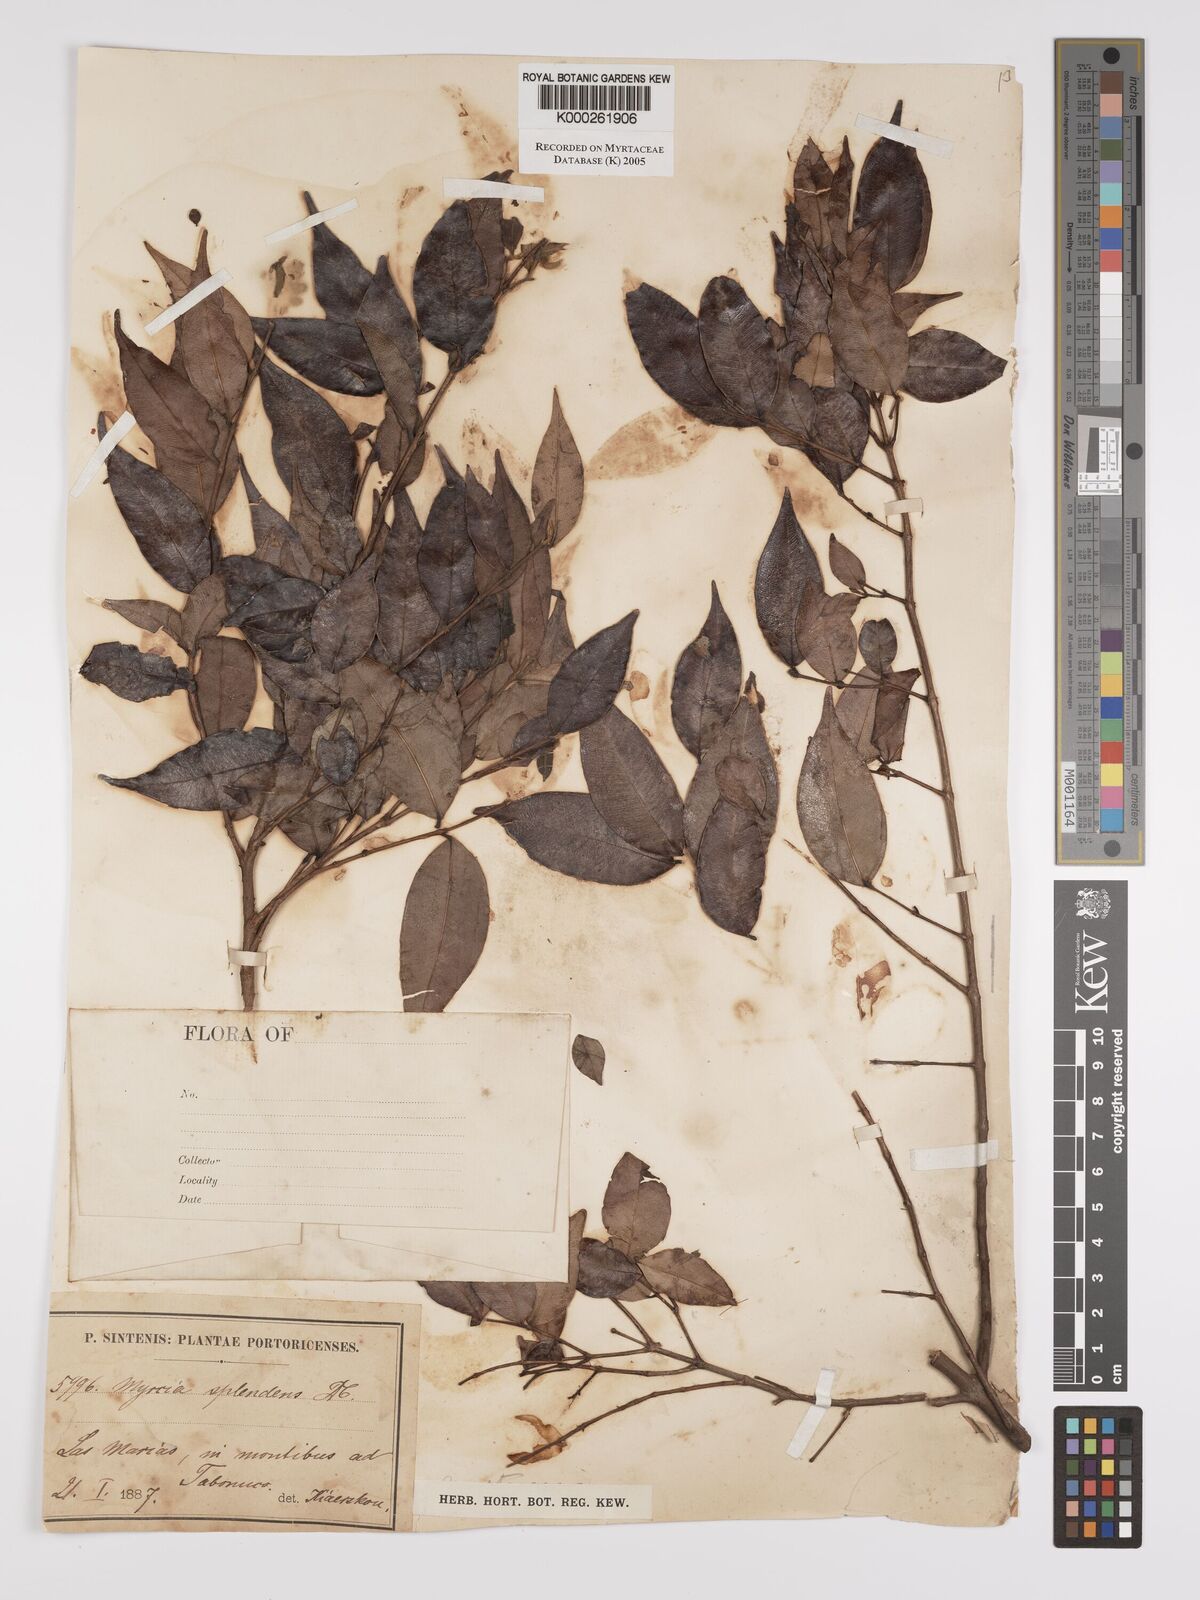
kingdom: Plantae
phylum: Tracheophyta
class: Magnoliopsida
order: Myrtales
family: Myrtaceae
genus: Myrcia
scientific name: Myrcia splendens
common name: Surinam cherry
